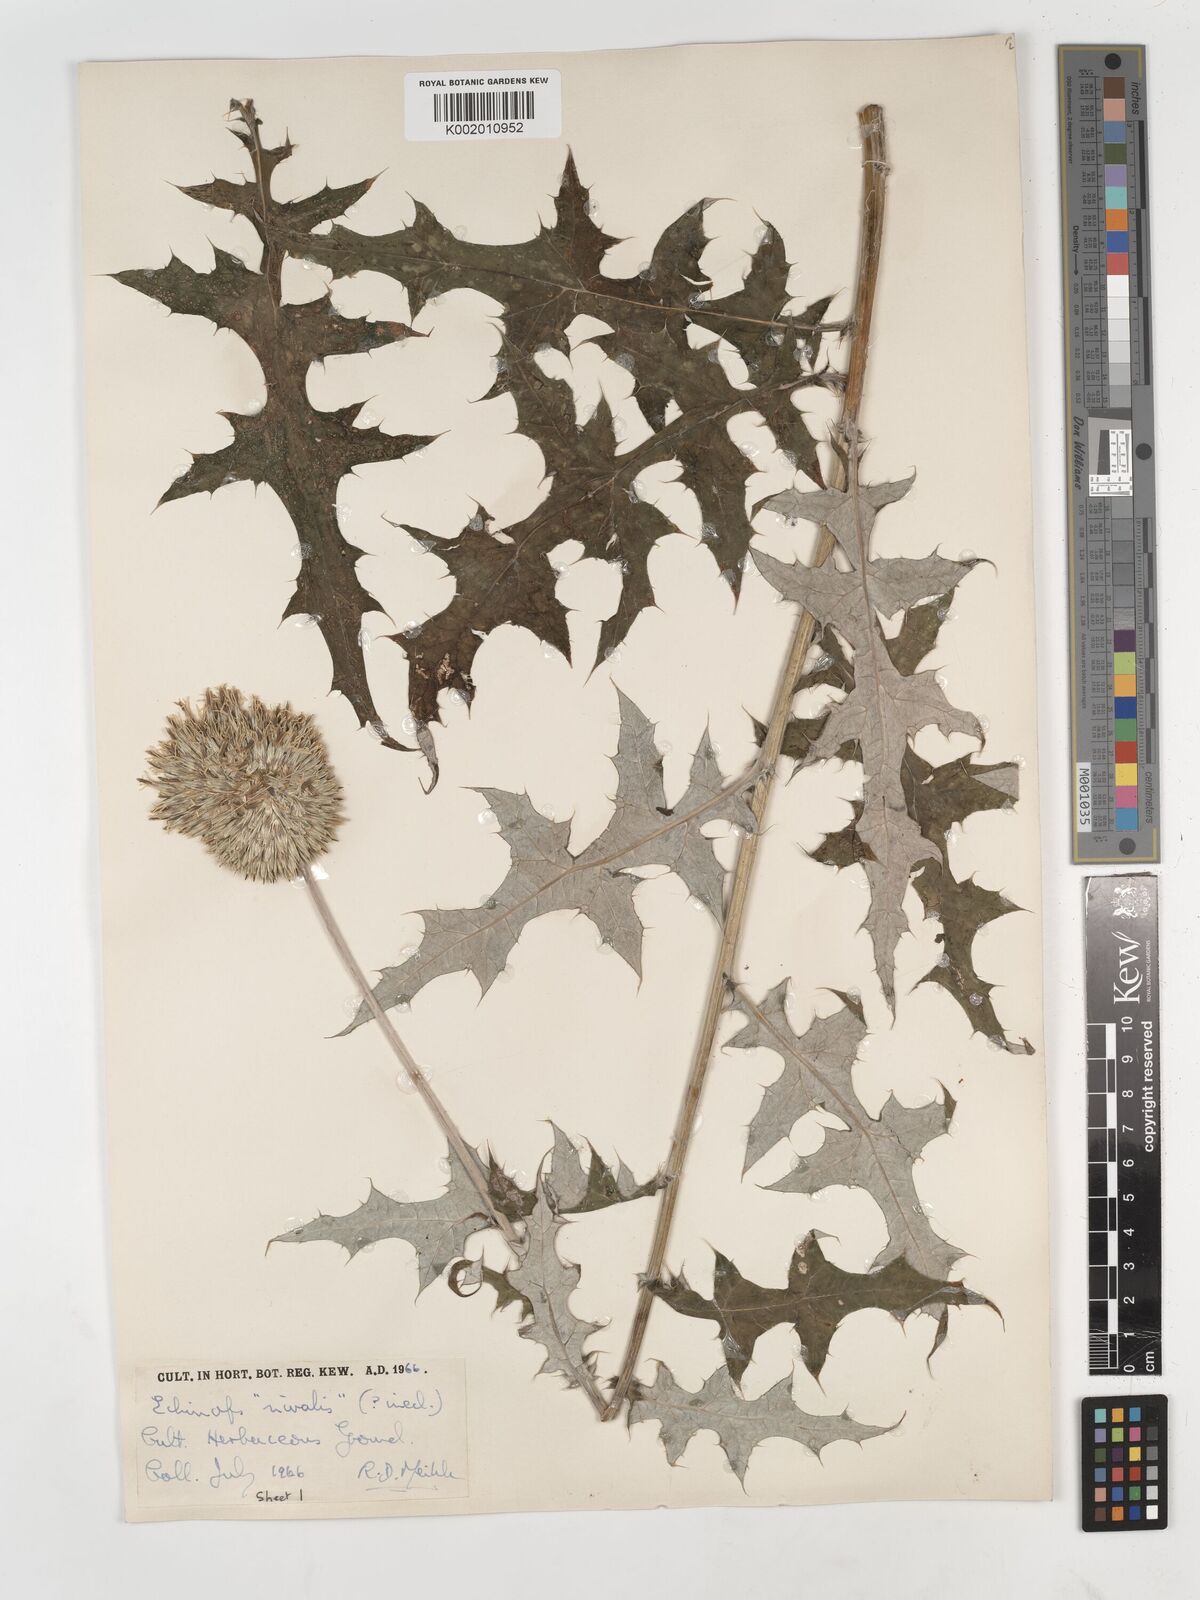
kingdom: Plantae
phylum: Tracheophyta
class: Magnoliopsida
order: Asterales
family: Asteraceae
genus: Echinops
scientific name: Echinops
